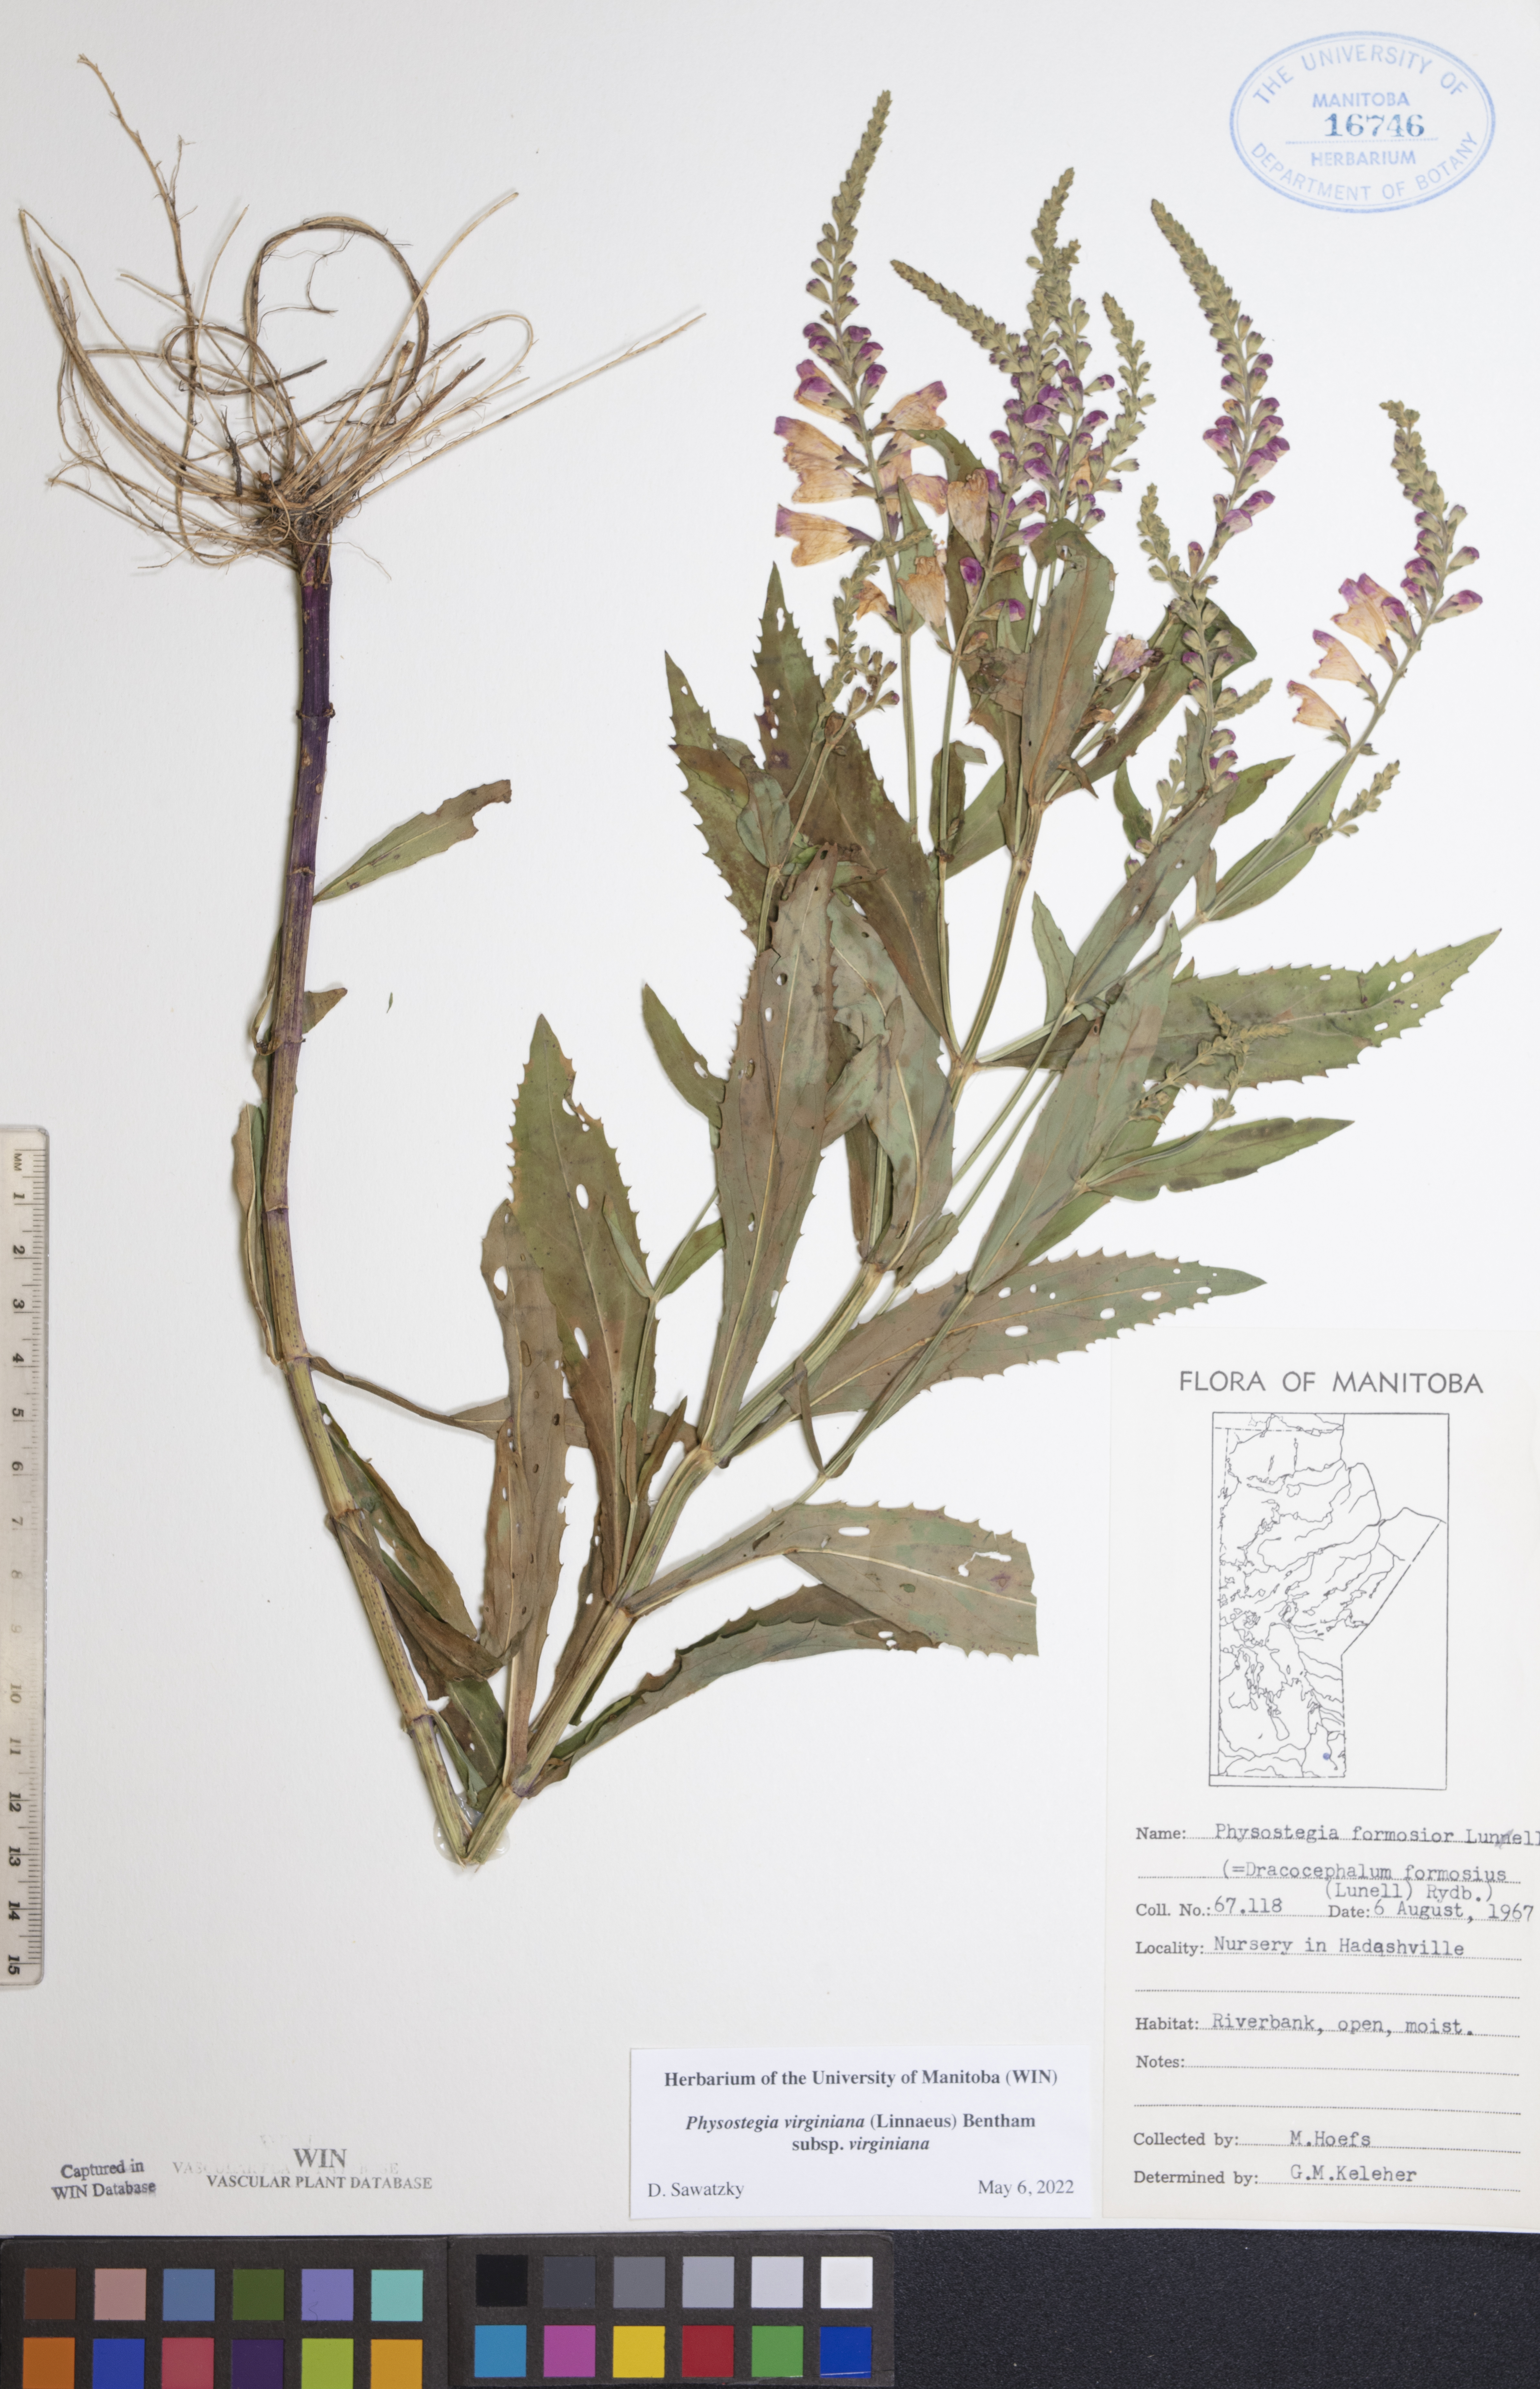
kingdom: Plantae
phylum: Tracheophyta
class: Magnoliopsida
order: Lamiales
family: Lamiaceae
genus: Physostegia
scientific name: Physostegia virginiana
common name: Obedient-plant
